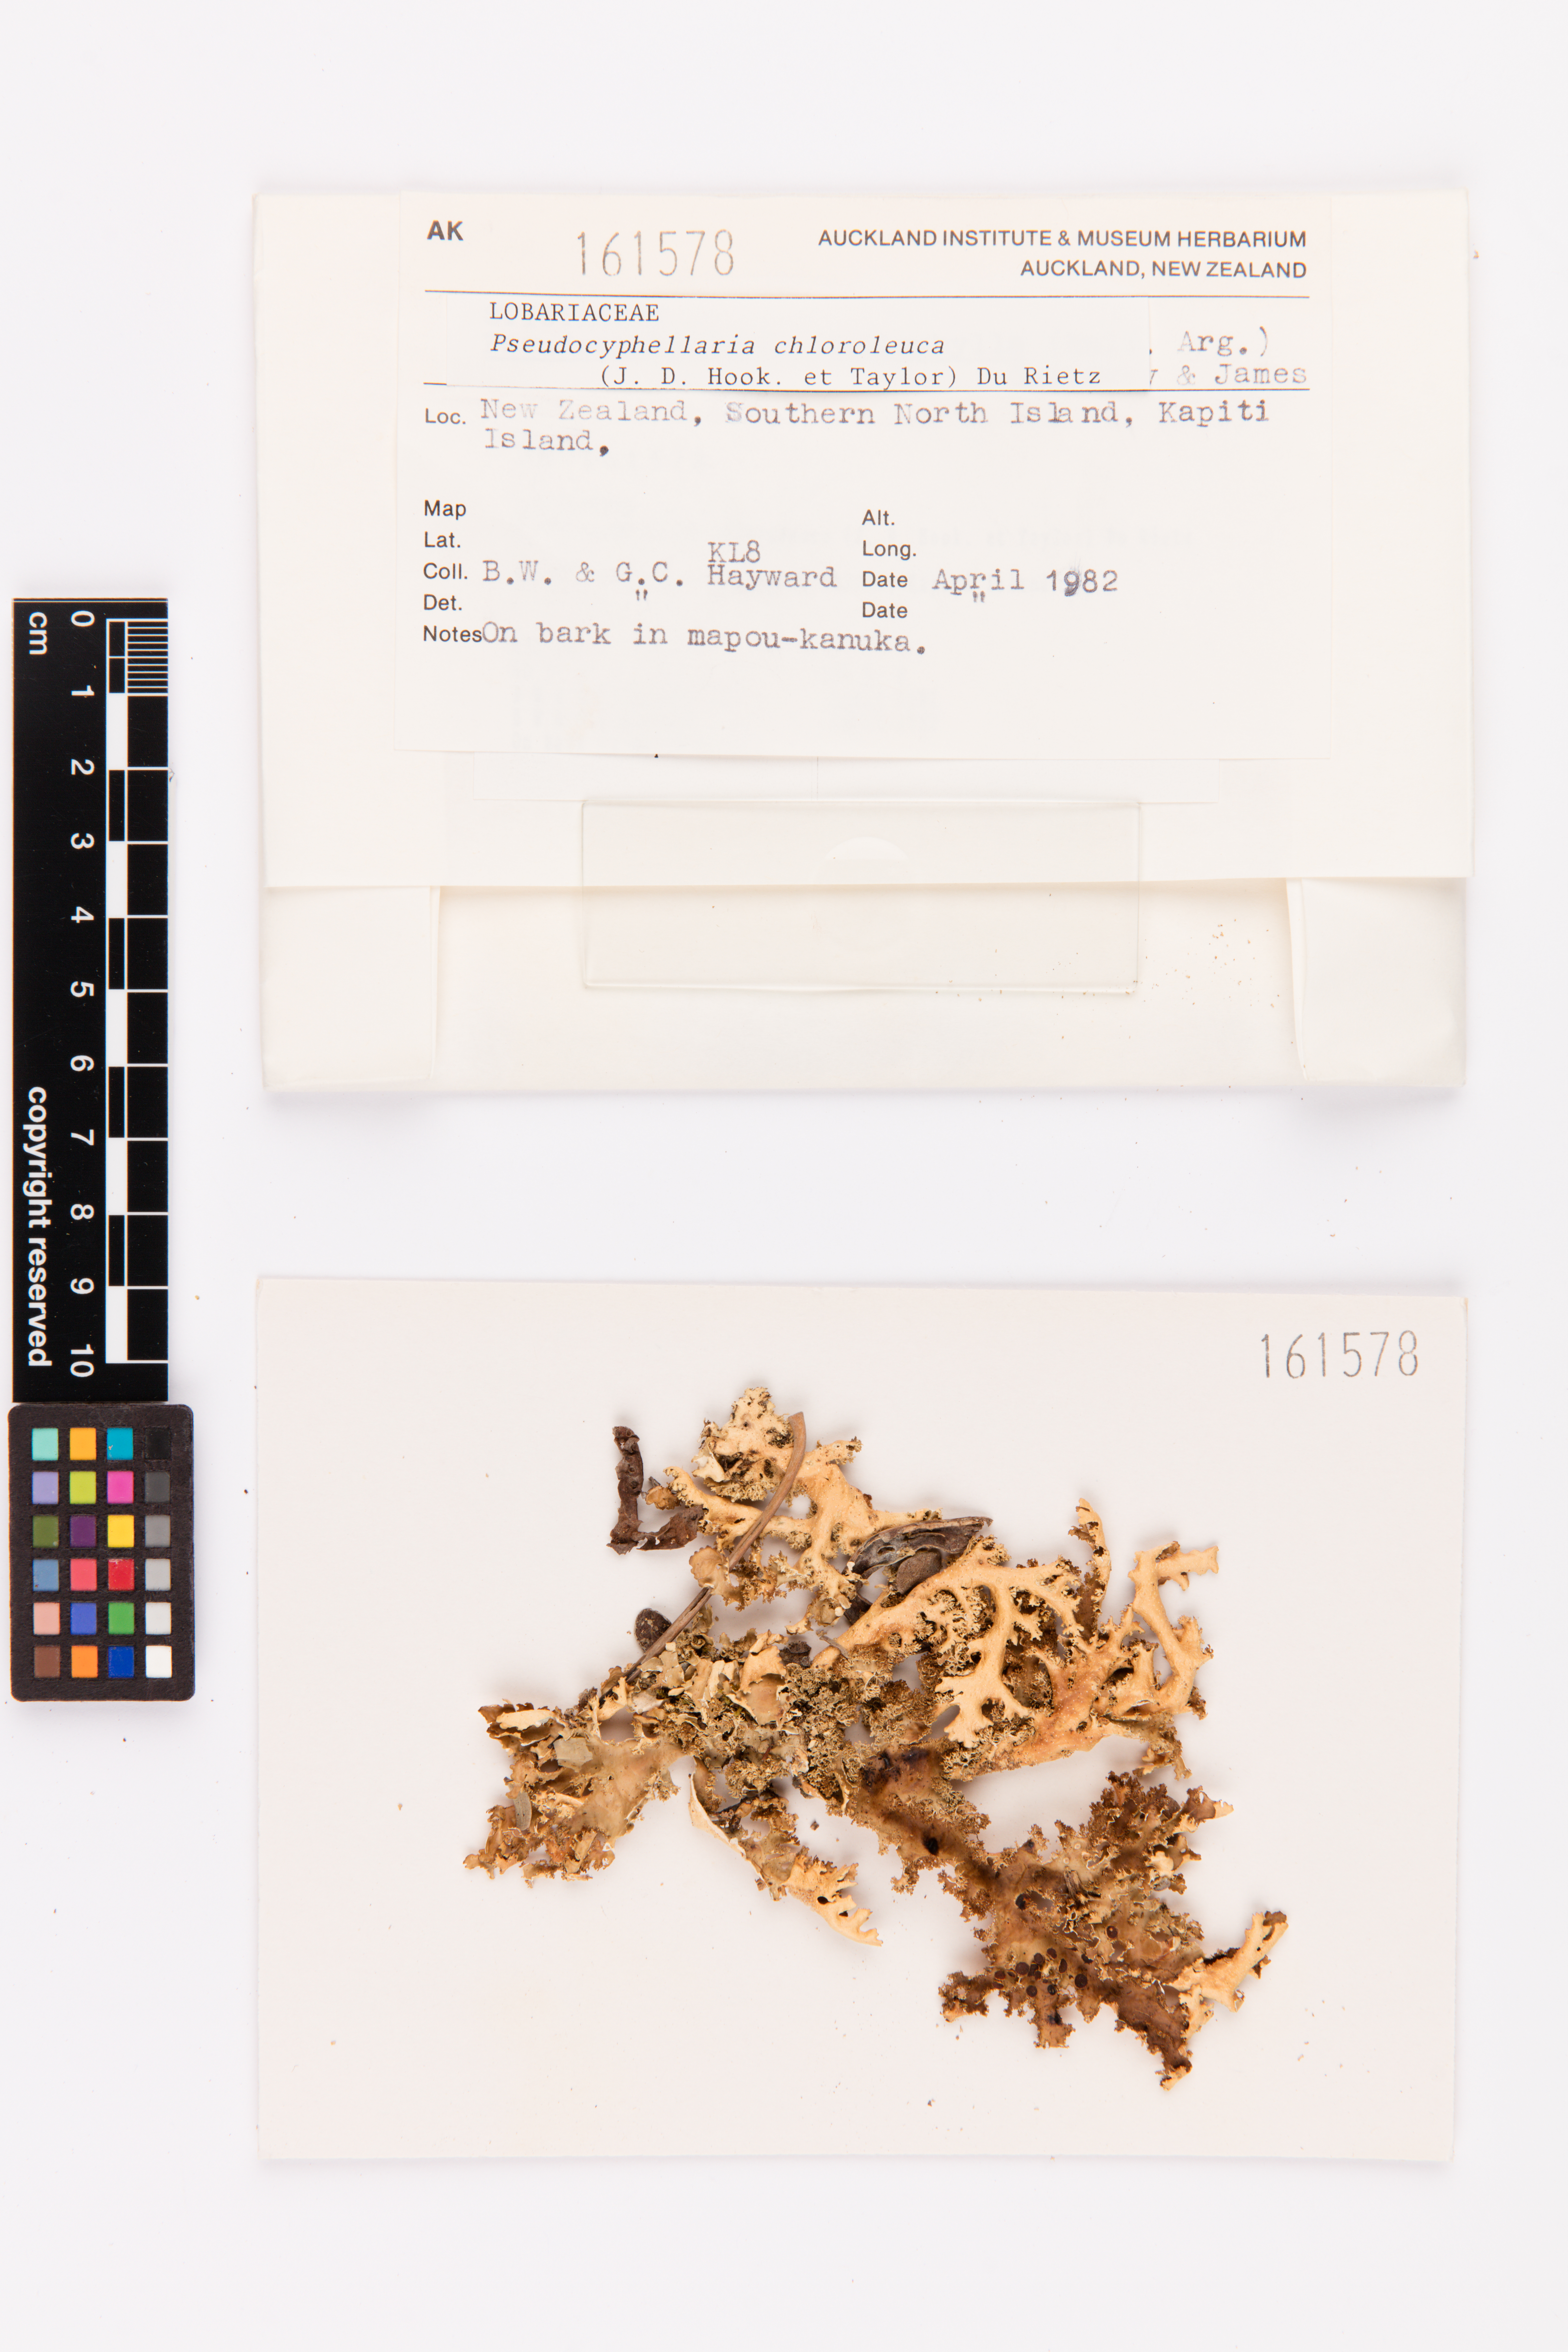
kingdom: Fungi
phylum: Ascomycota
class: Lecanoromycetes
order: Peltigerales
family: Lobariaceae
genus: Pseudocyphellaria
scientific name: Pseudocyphellaria chloroleuca
